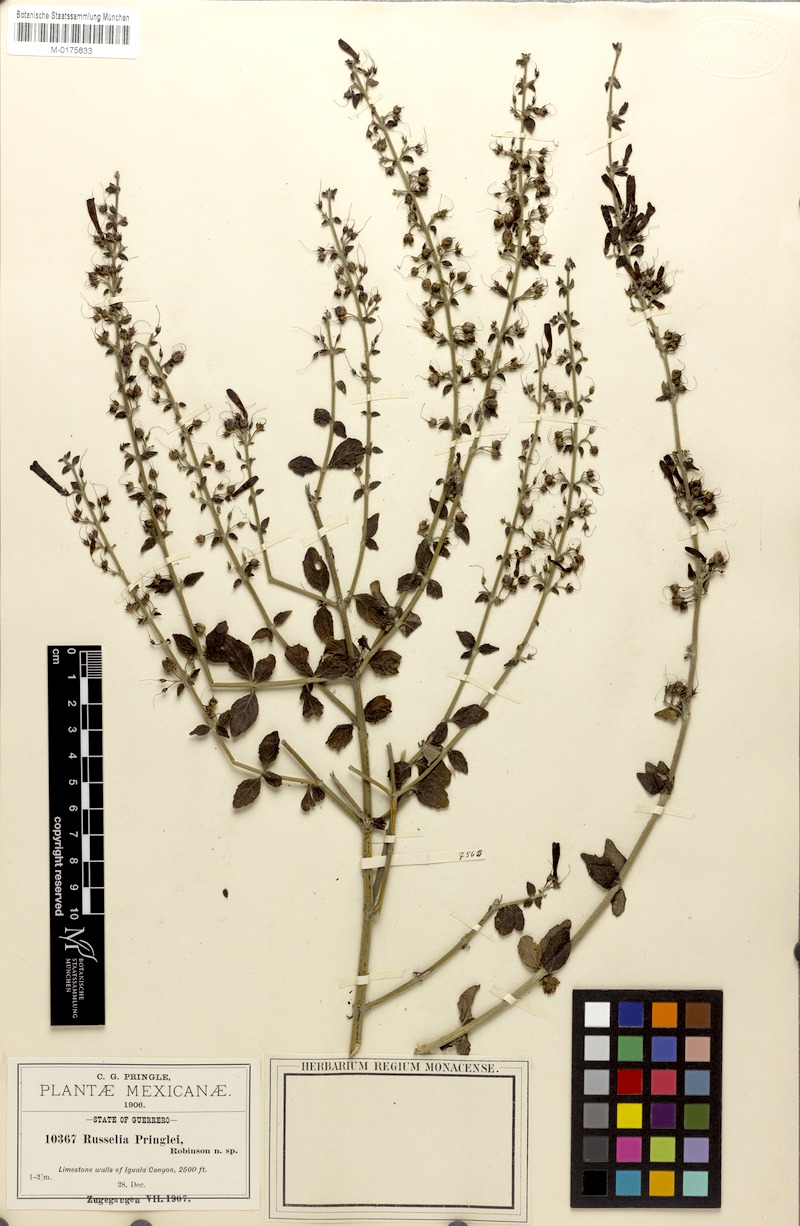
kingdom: Plantae
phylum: Tracheophyta
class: Magnoliopsida
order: Lamiales
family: Plantaginaceae
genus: Russelia
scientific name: Russelia pringlei
